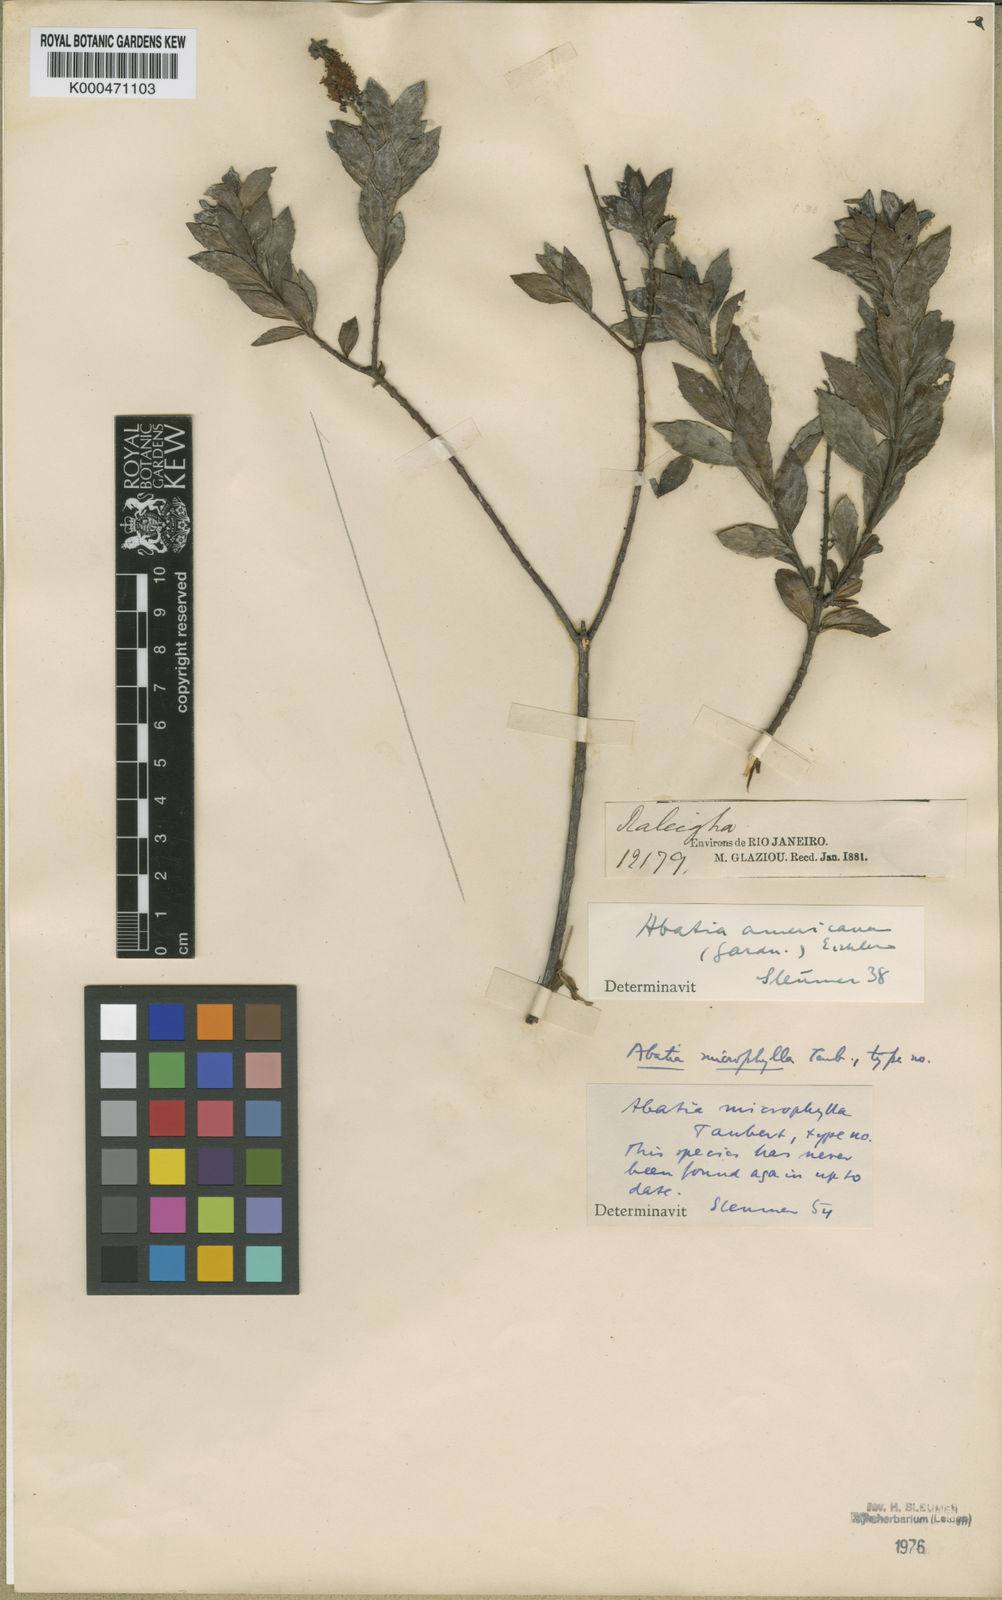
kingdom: Plantae
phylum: Tracheophyta
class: Magnoliopsida
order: Malpighiales
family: Salicaceae
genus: Abatia
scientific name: Abatia microphylla
